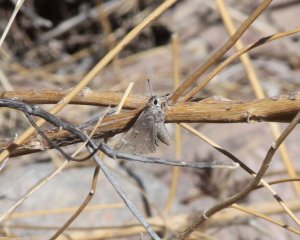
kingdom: Animalia
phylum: Arthropoda
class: Insecta
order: Lepidoptera
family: Hesperiidae
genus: Atrytonopsis
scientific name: Atrytonopsis python
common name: Python Skipper
